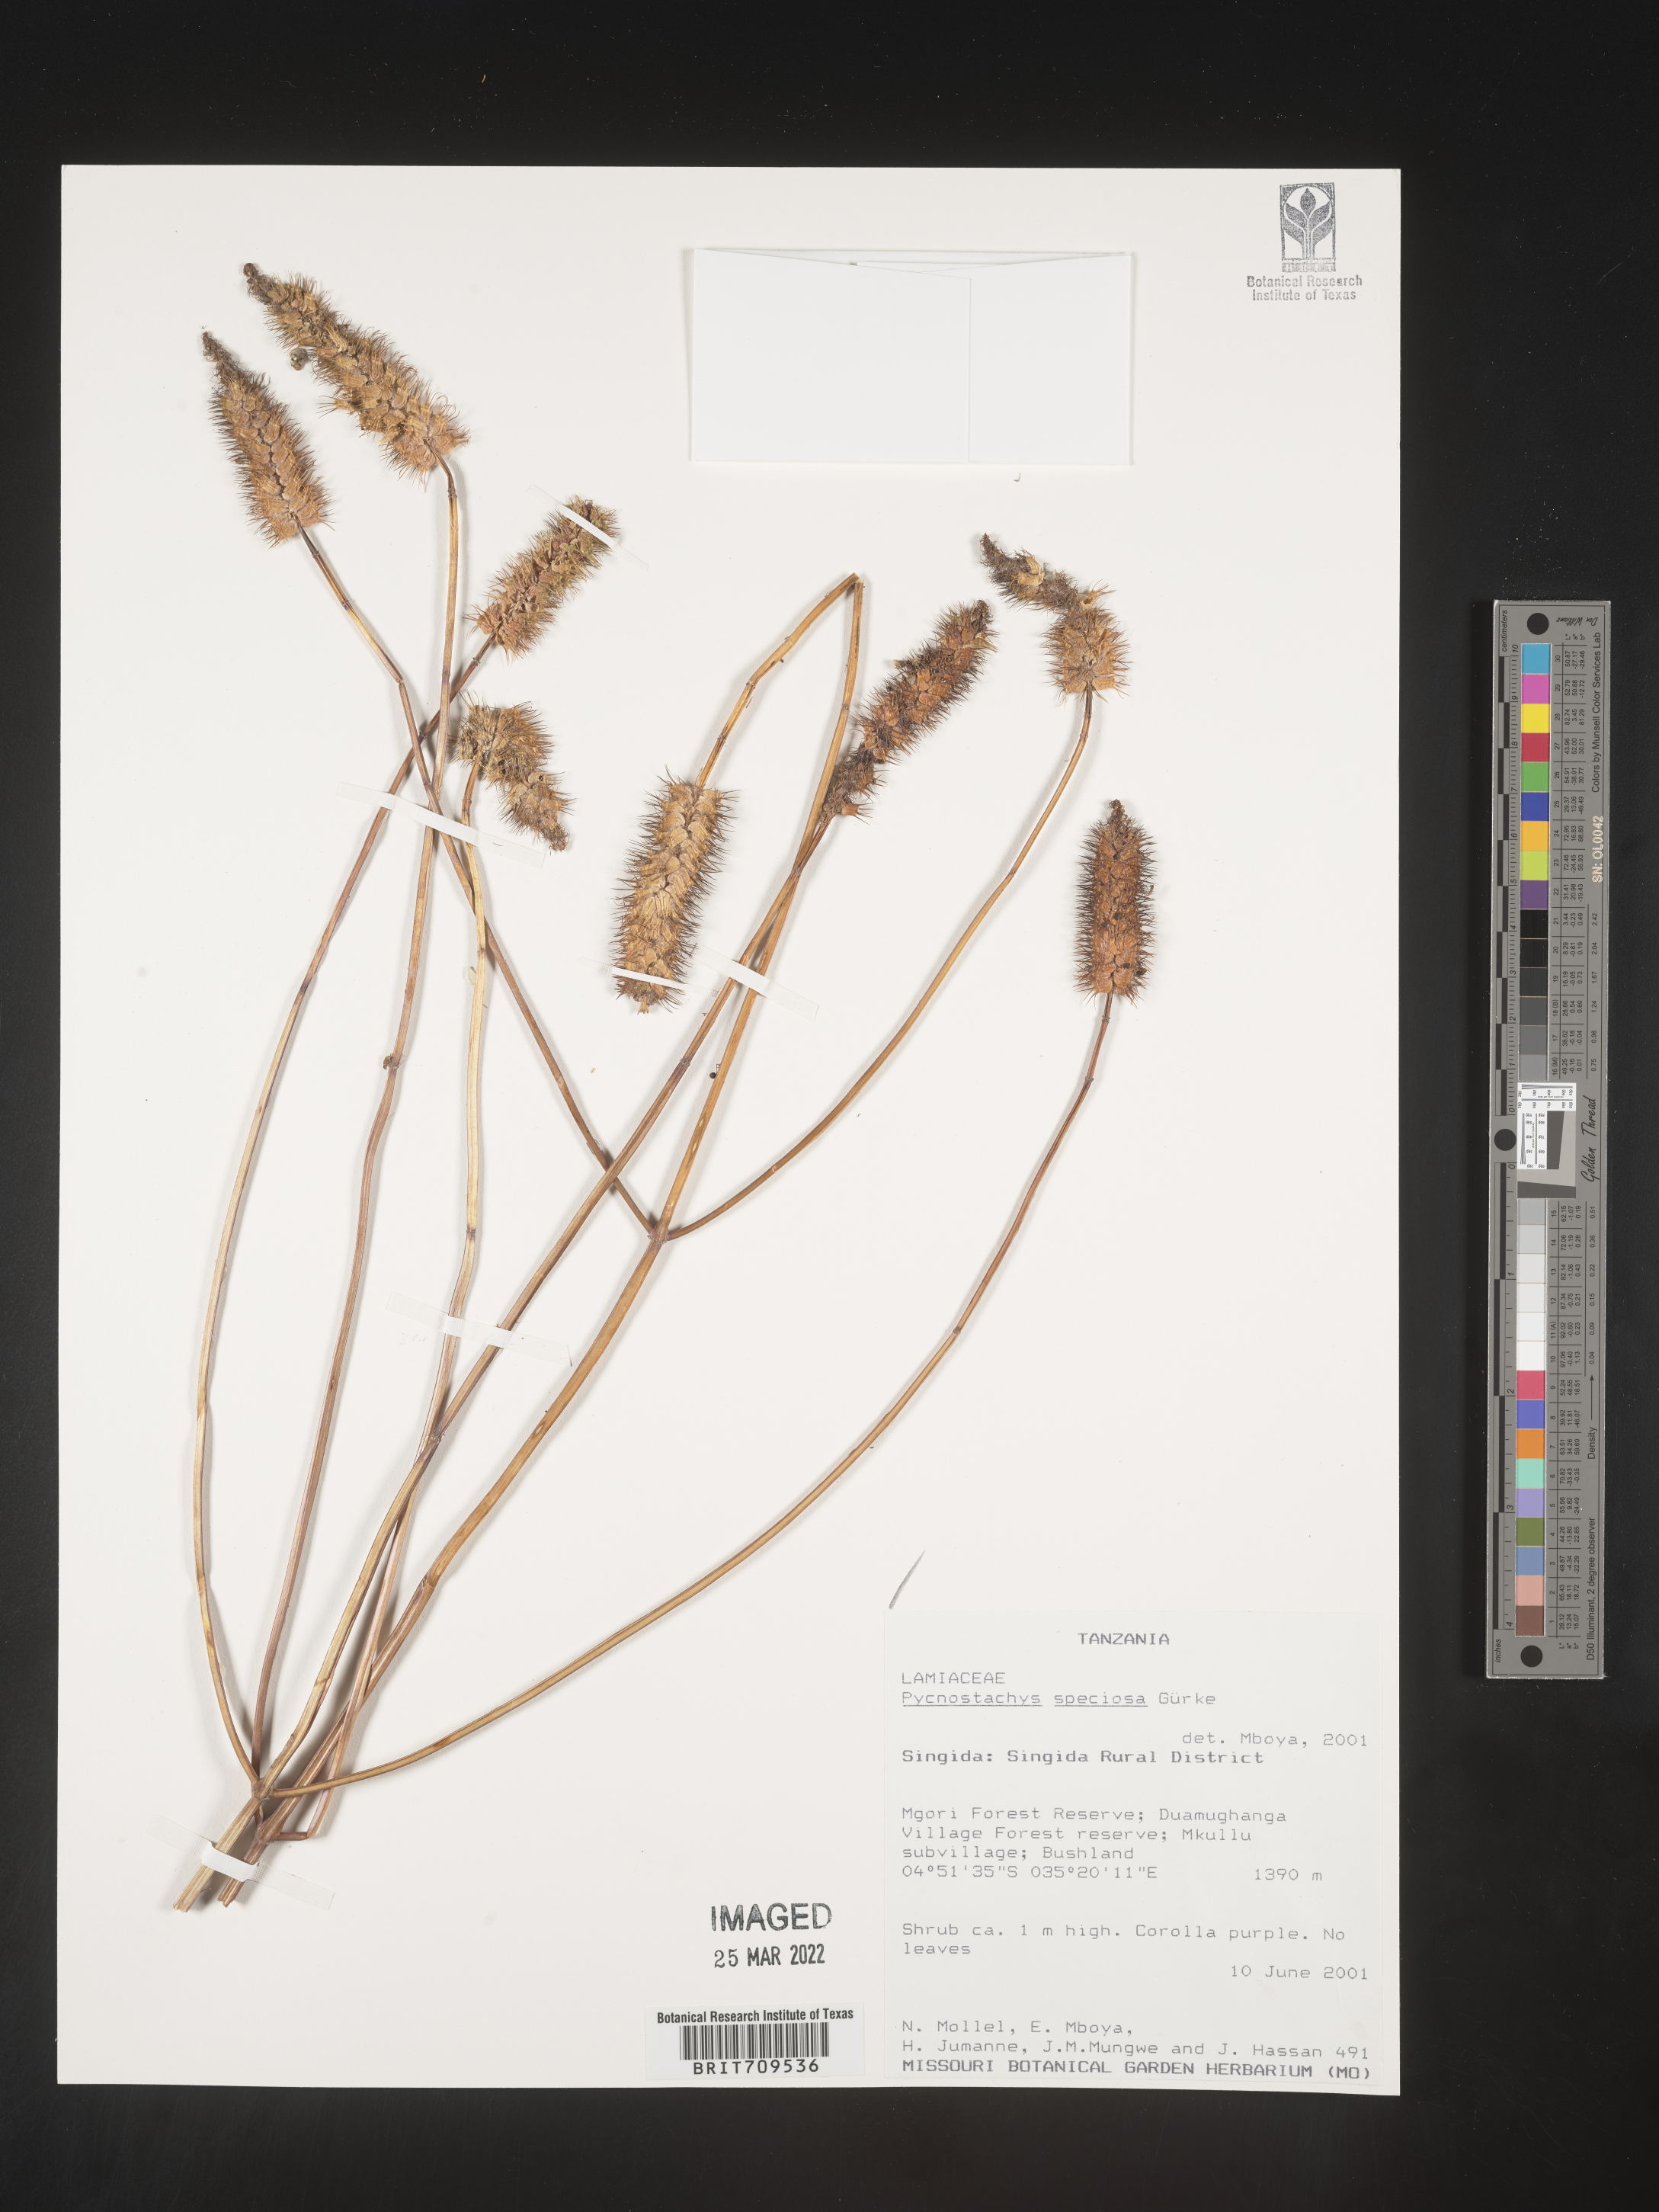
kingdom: Plantae
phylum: Tracheophyta
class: Magnoliopsida
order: Lamiales
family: Lamiaceae
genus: Coleus
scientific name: Coleus
